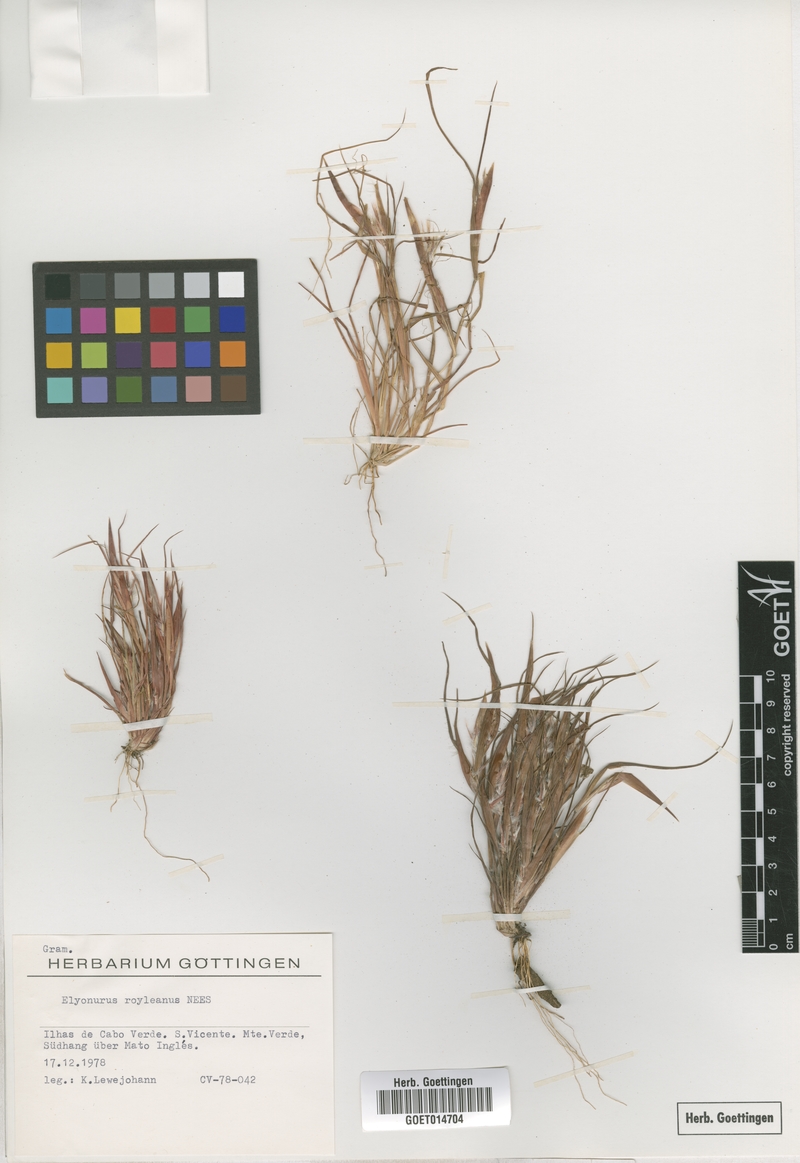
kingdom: Plantae
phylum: Tracheophyta
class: Liliopsida
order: Poales
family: Poaceae
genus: Elionurus
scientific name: Elionurus royleanus
